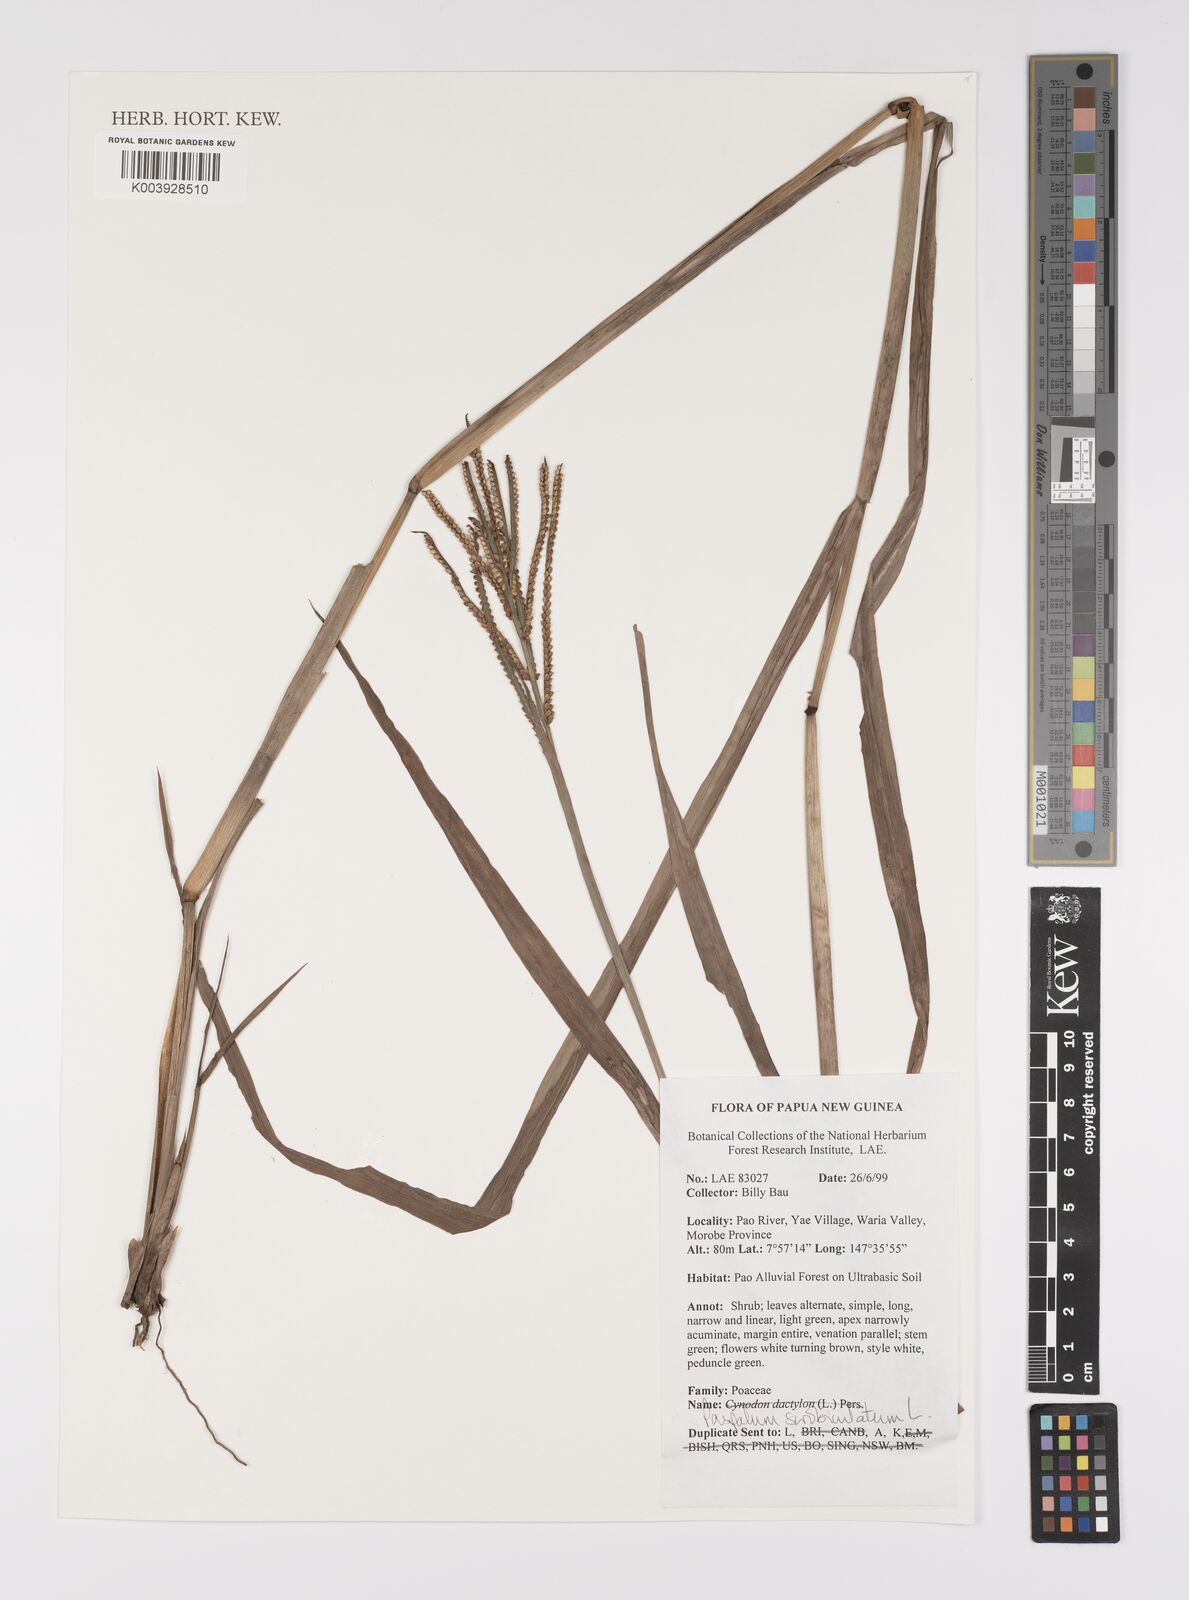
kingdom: Plantae
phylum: Tracheophyta
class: Liliopsida
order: Poales
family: Poaceae
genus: Paspalum
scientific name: Paspalum scrobiculatum
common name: Kodo millet
